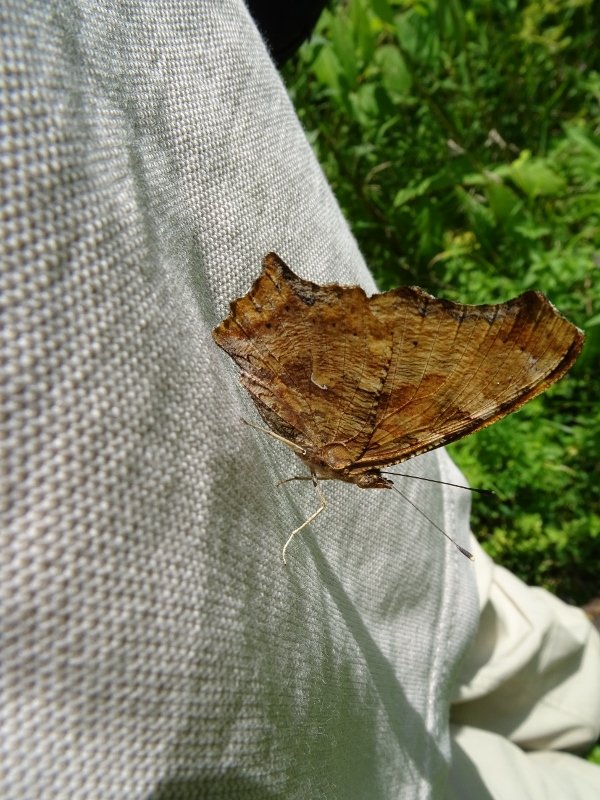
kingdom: Animalia
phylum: Arthropoda
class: Insecta
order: Lepidoptera
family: Nymphalidae
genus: Polygonia
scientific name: Polygonia comma
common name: Eastern Comma
